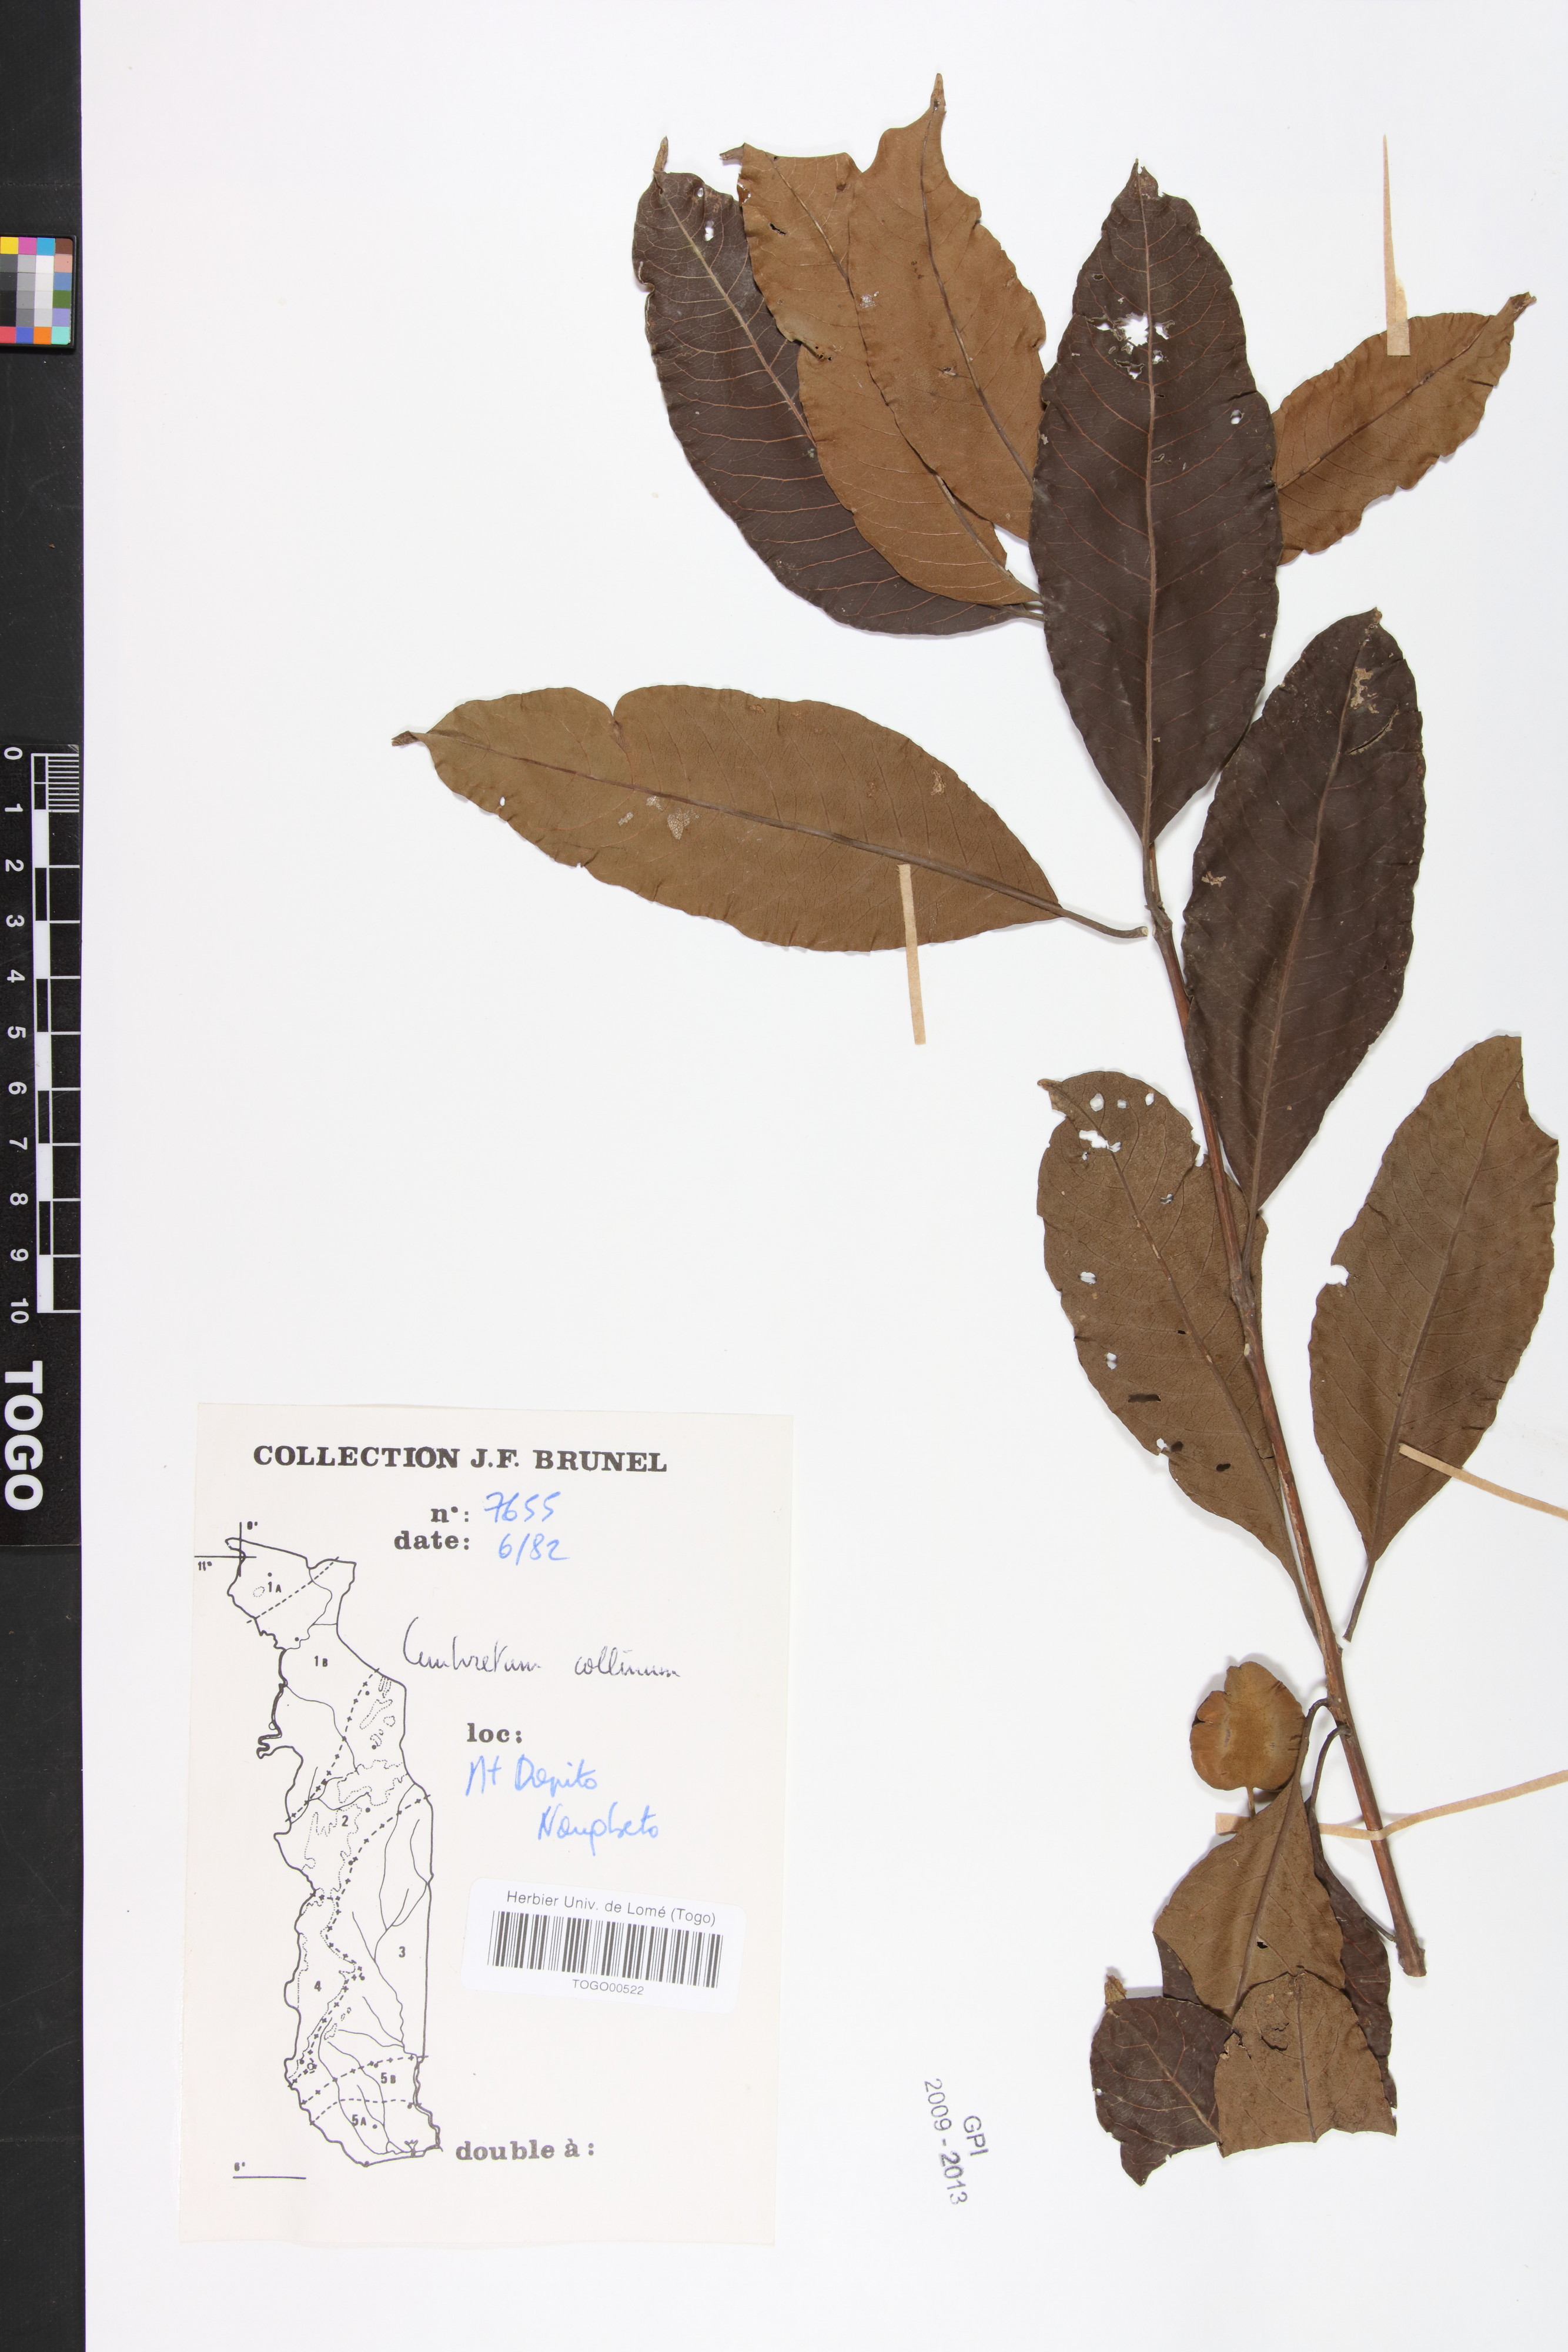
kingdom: Plantae
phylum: Tracheophyta
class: Magnoliopsida
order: Myrtales
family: Combretaceae
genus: Combretum
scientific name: Combretum collinum
